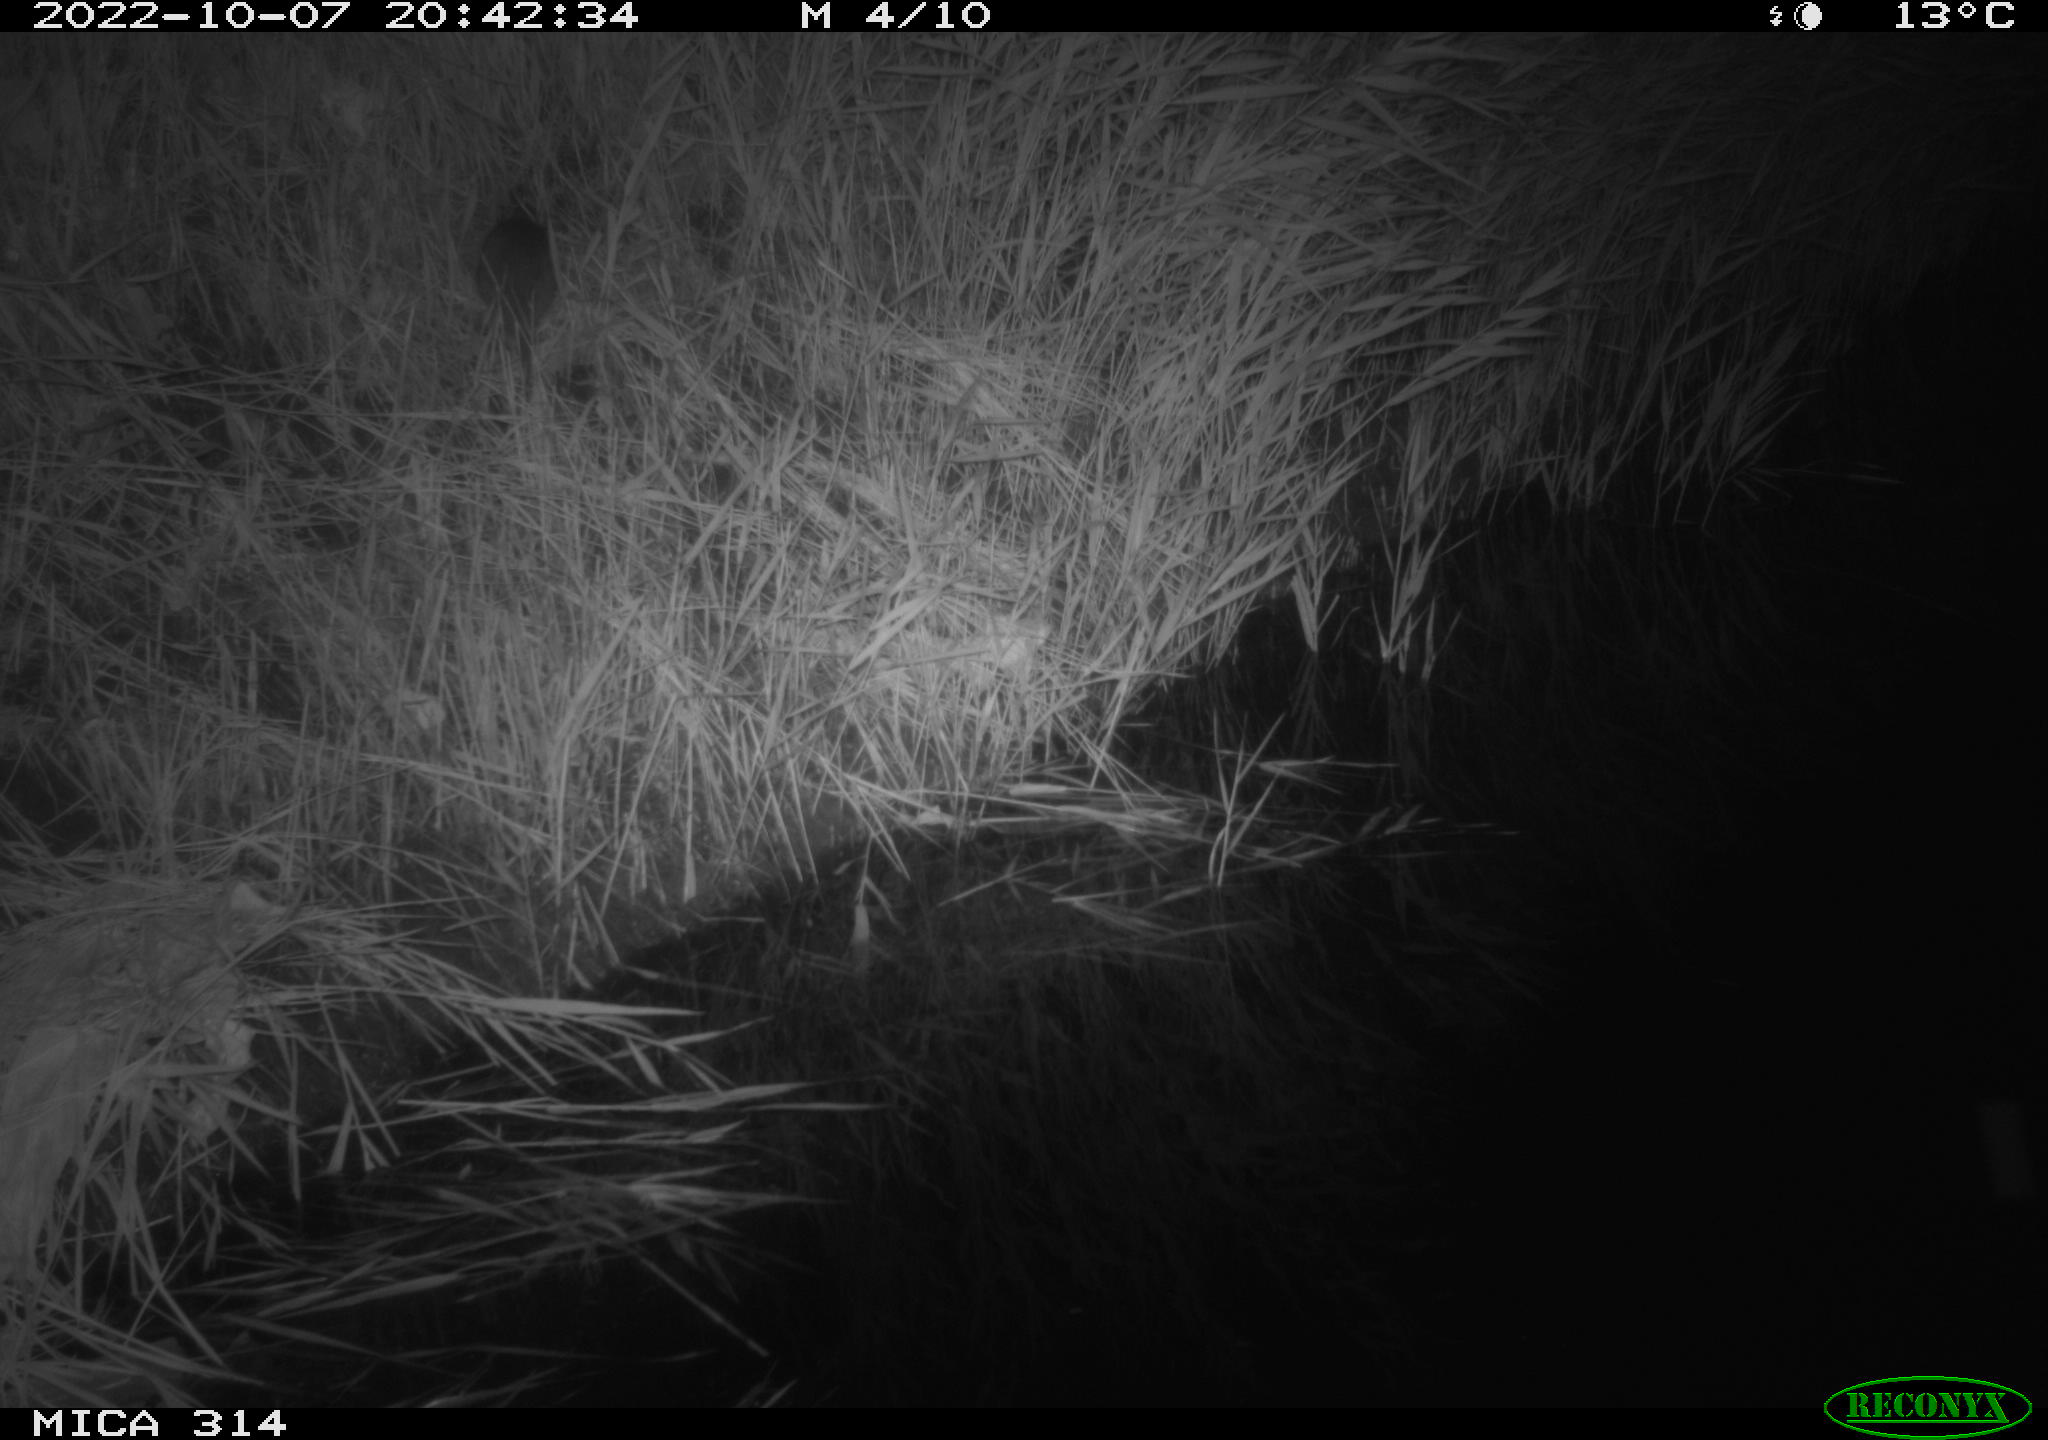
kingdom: Animalia
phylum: Chordata
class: Mammalia
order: Rodentia
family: Muridae
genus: Rattus
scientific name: Rattus norvegicus
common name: Brown rat
